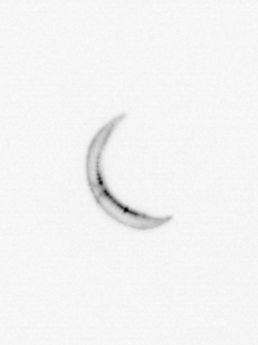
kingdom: Chromista
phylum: Ochrophyta
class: Bacillariophyceae
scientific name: Bacillariophyceae
